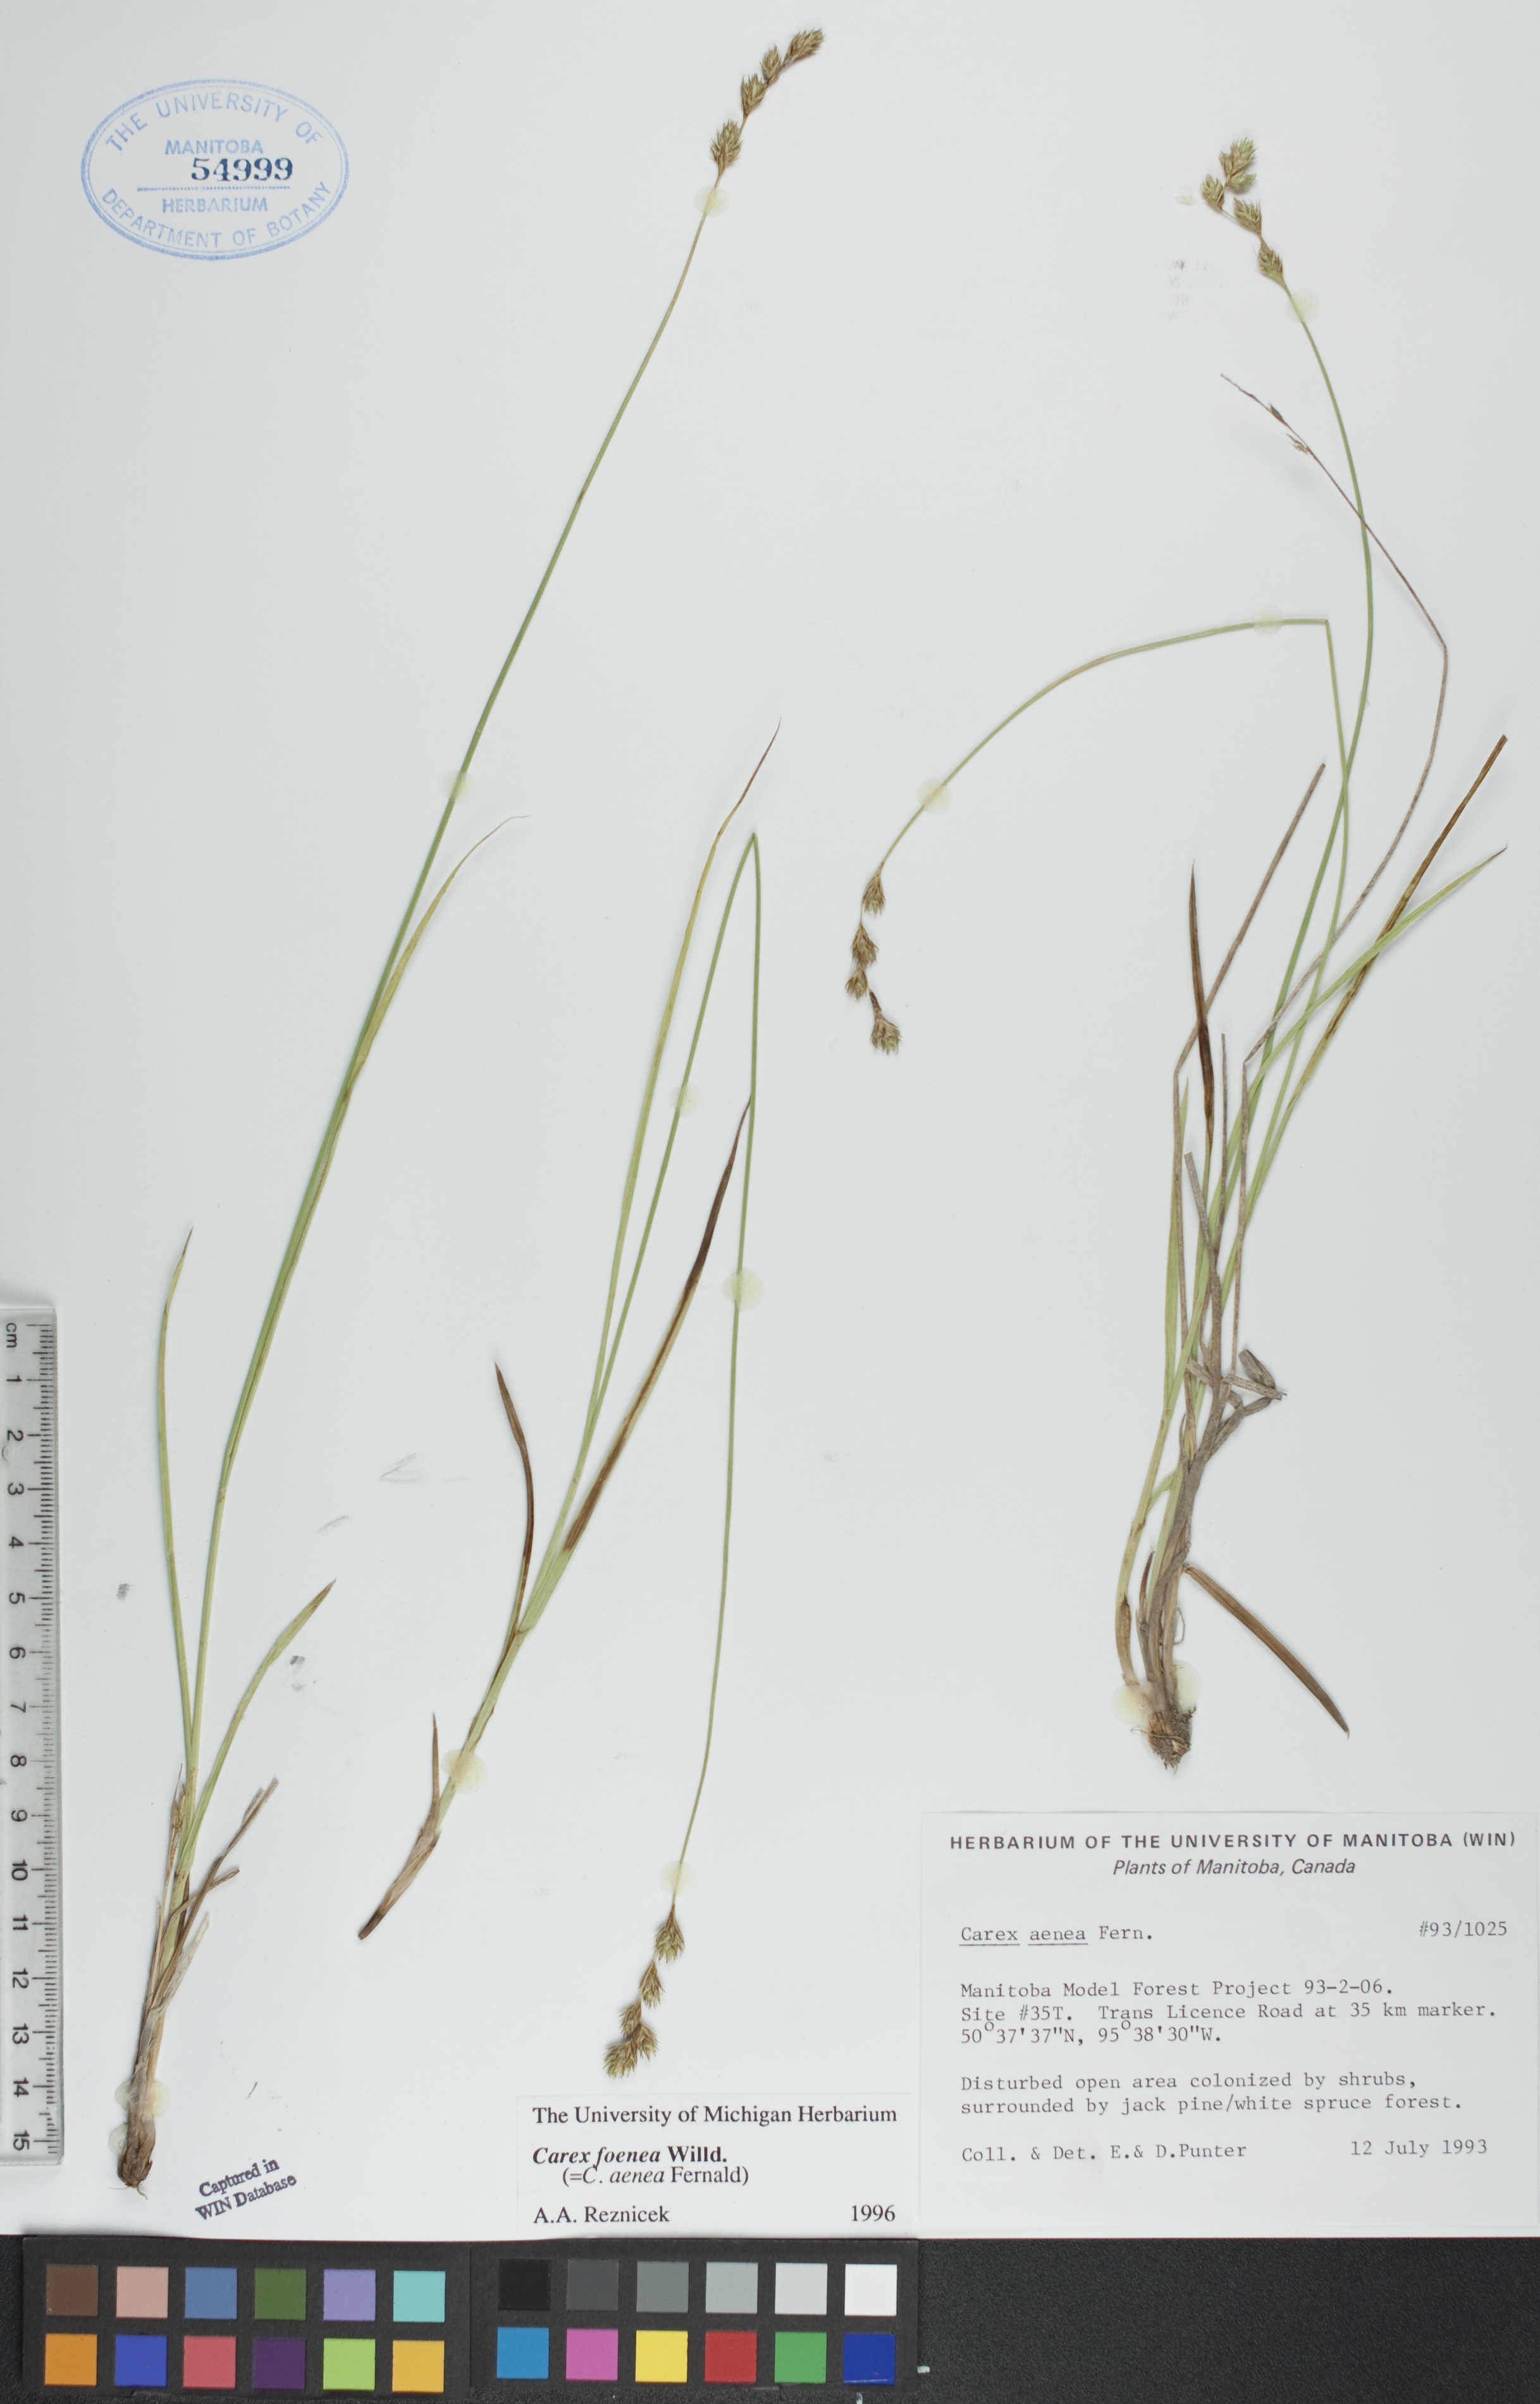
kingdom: Plantae
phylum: Tracheophyta
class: Liliopsida
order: Poales
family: Cyperaceae
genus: Carex
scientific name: Carex foenea
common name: Bronze sedge
